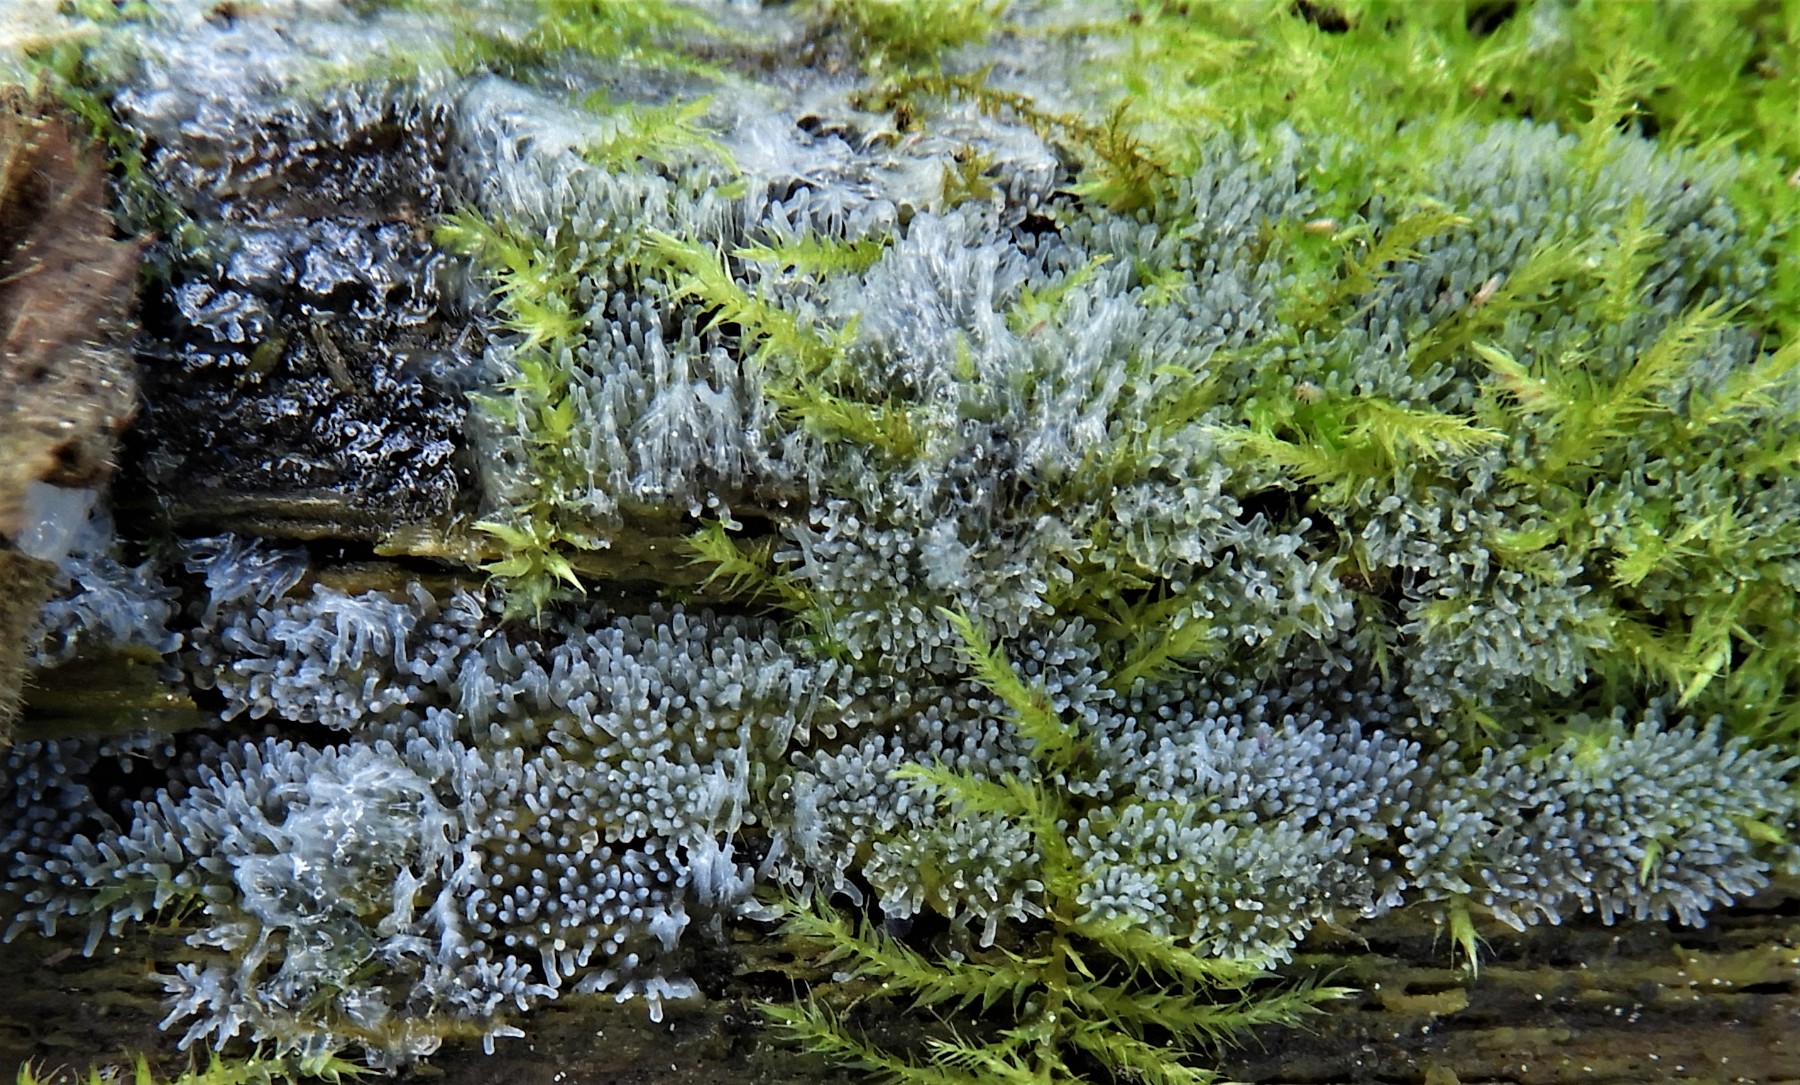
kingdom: Protozoa
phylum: Mycetozoa
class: Protosteliomycetes
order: Ceratiomyxales
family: Ceratiomyxaceae
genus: Ceratiomyxa
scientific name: Ceratiomyxa fruticulosa
